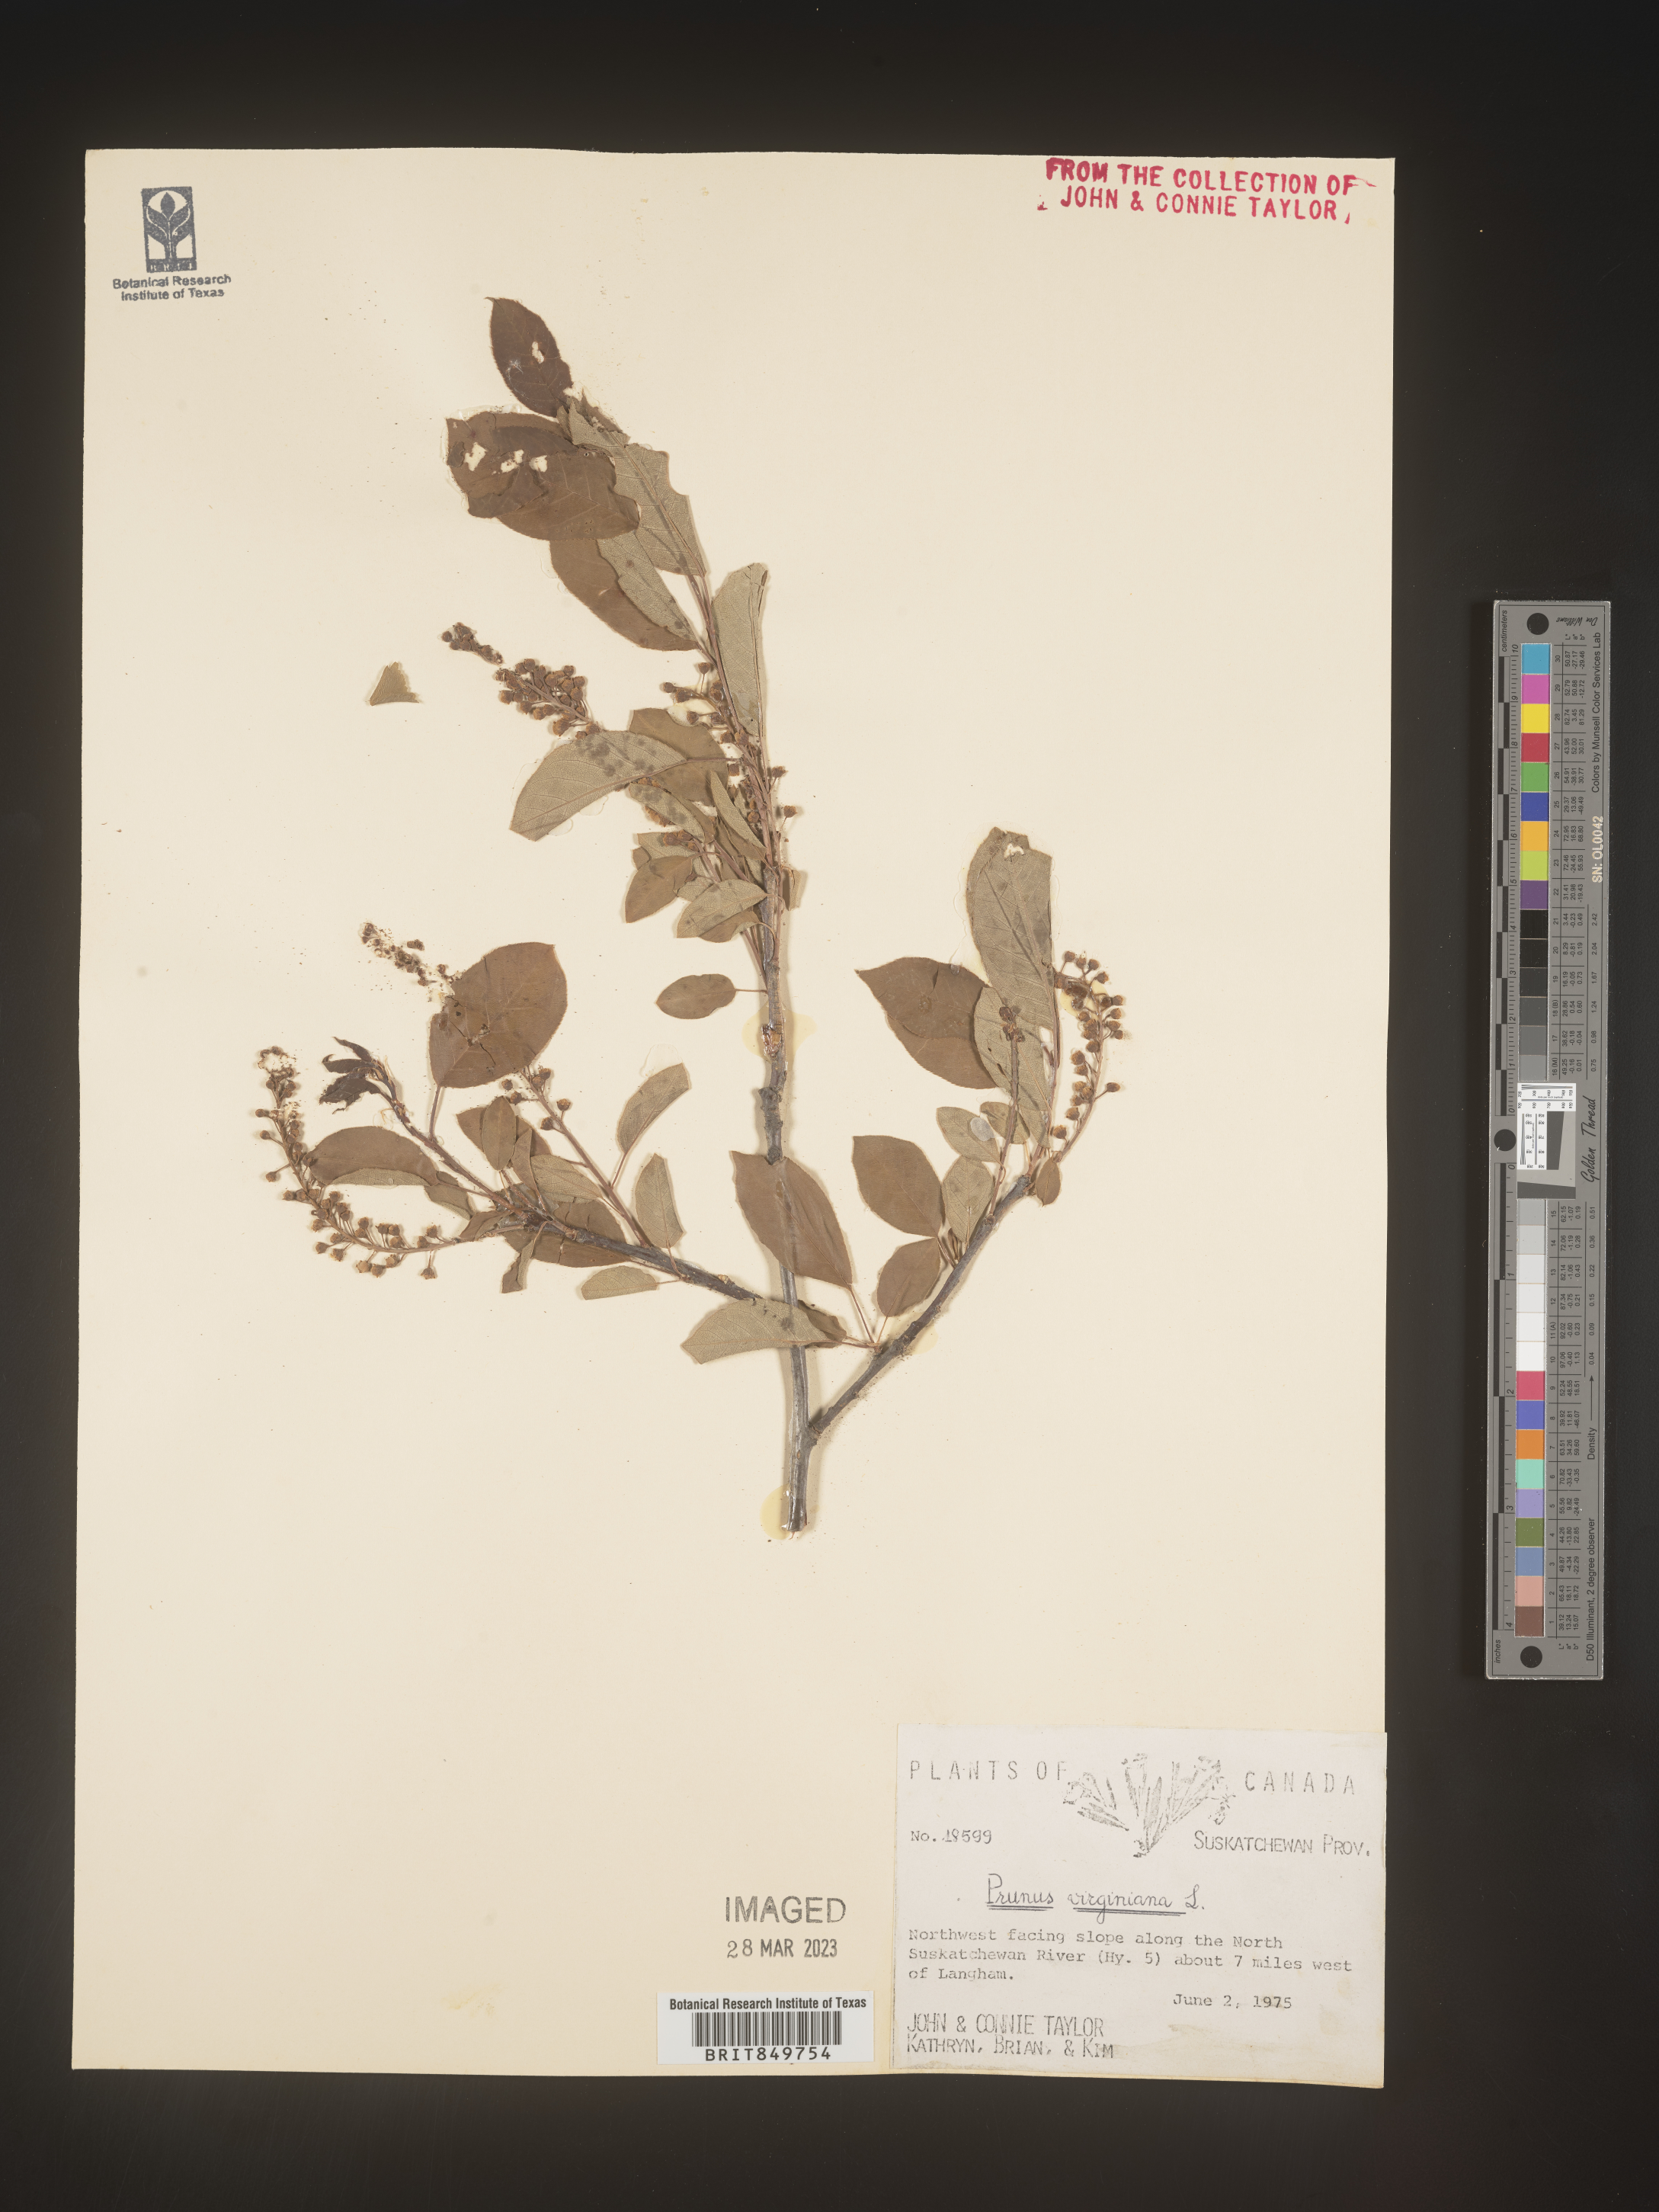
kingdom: Plantae
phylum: Tracheophyta
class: Magnoliopsida
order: Rosales
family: Rosaceae
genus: Prunus
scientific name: Prunus virginiana
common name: Chokecherry
